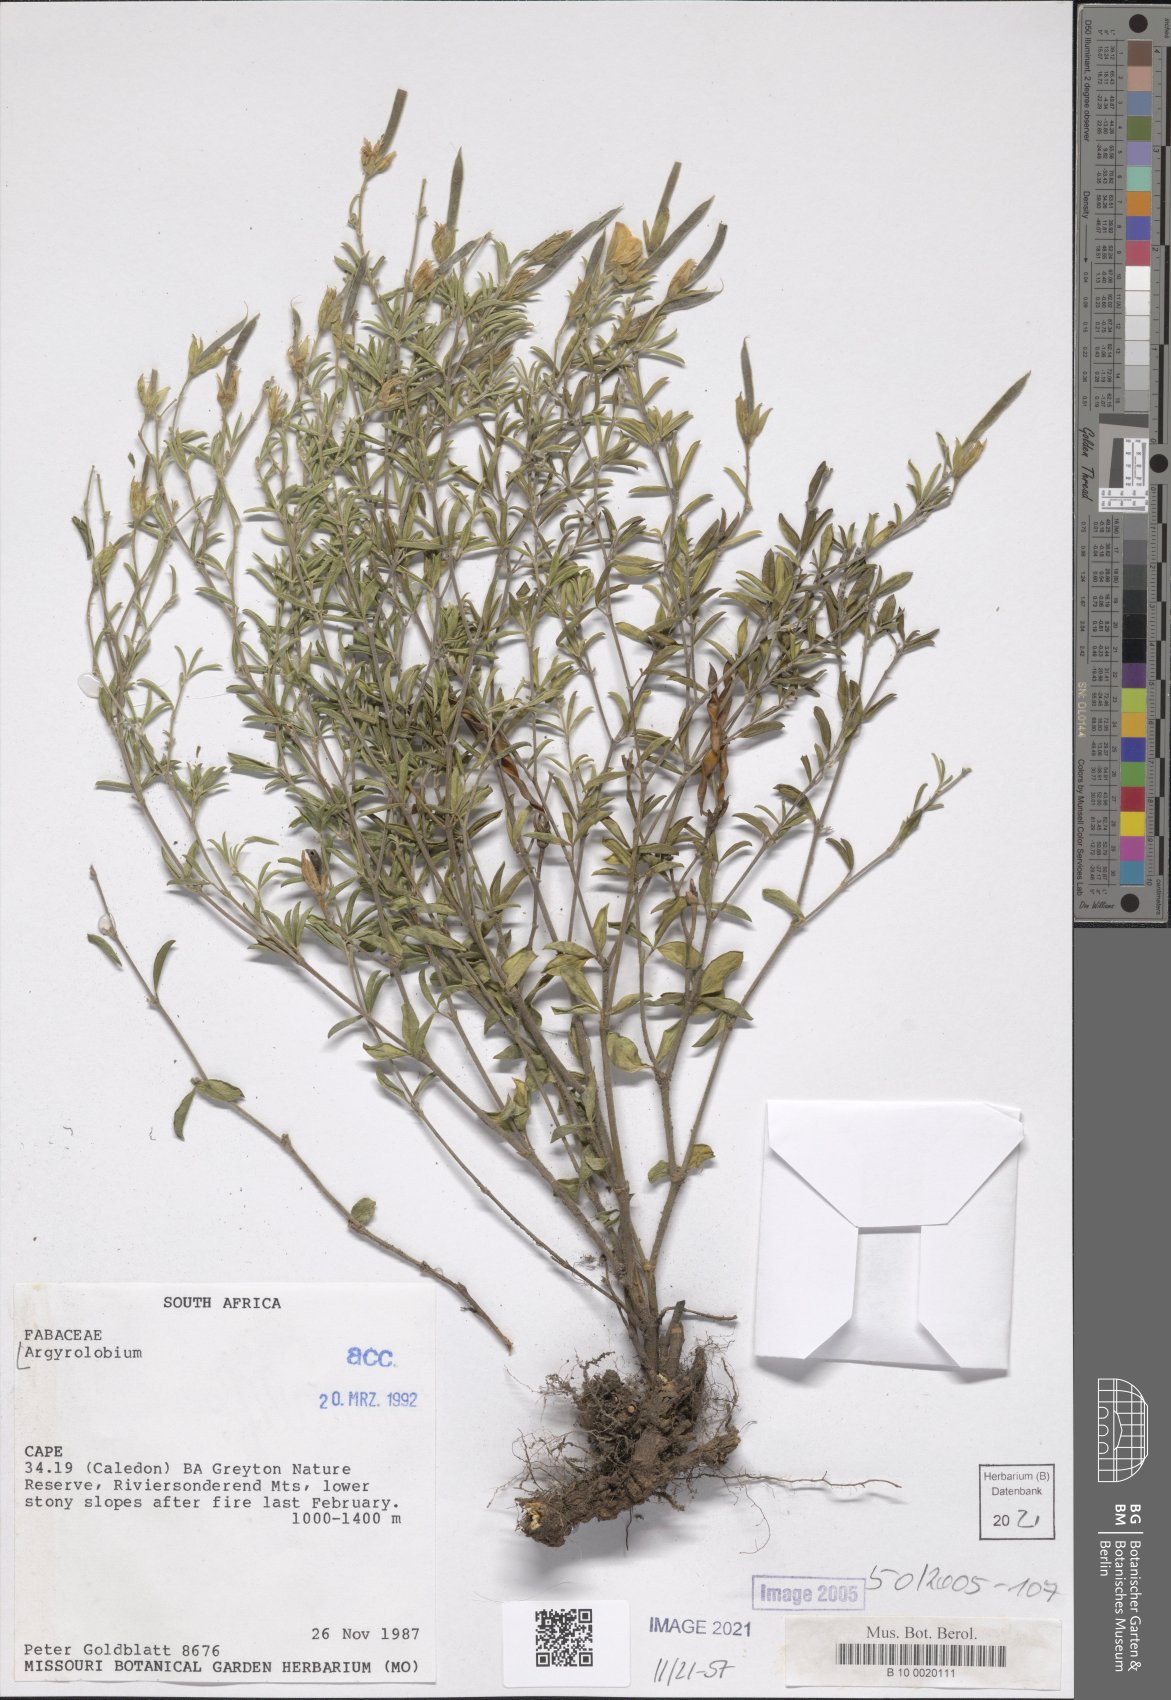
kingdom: Plantae
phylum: Tracheophyta
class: Magnoliopsida
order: Fabales
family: Fabaceae
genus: Argyrolobium
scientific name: Argyrolobium
